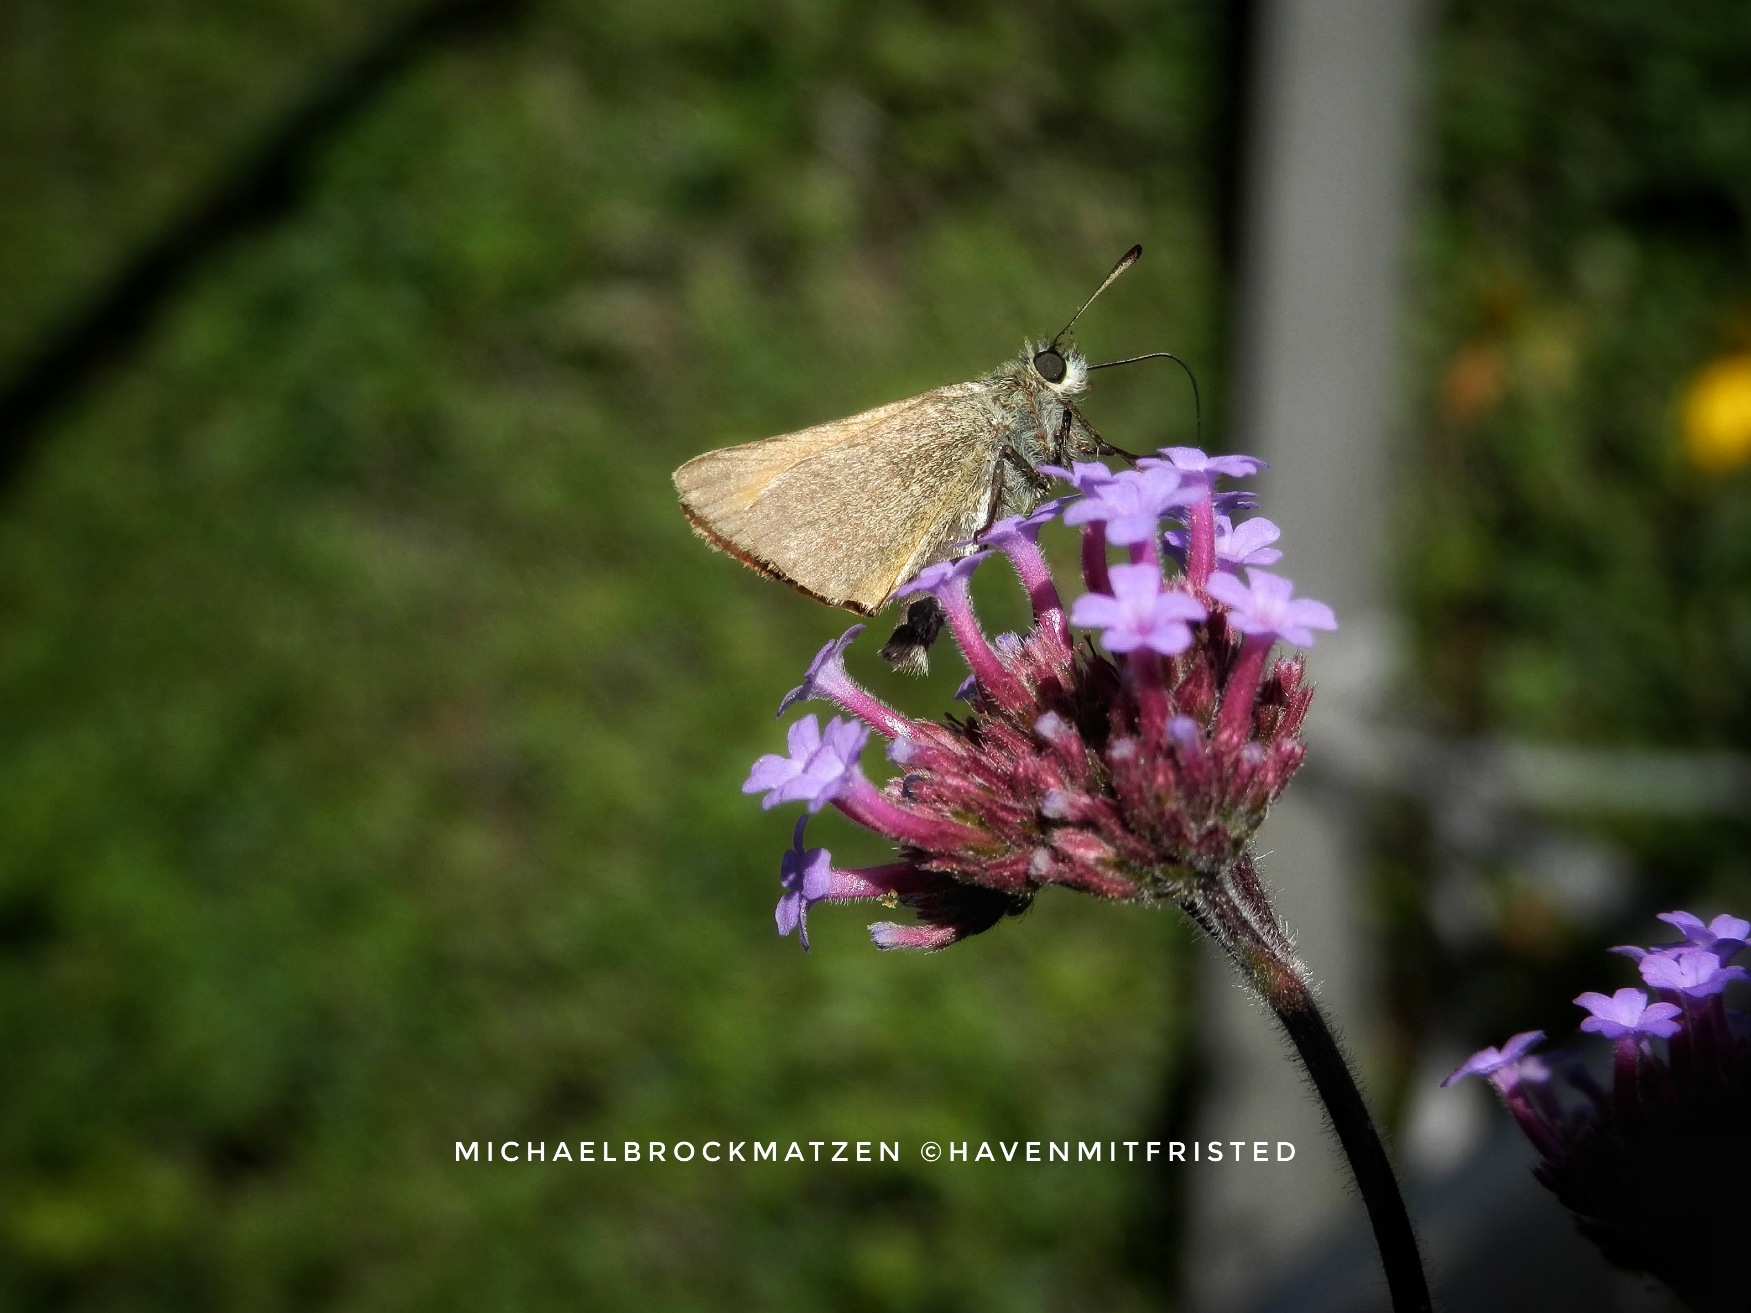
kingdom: Animalia
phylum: Arthropoda
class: Insecta
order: Lepidoptera
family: Hesperiidae
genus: Thymelicus
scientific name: Thymelicus lineola
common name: Stregbredpande
